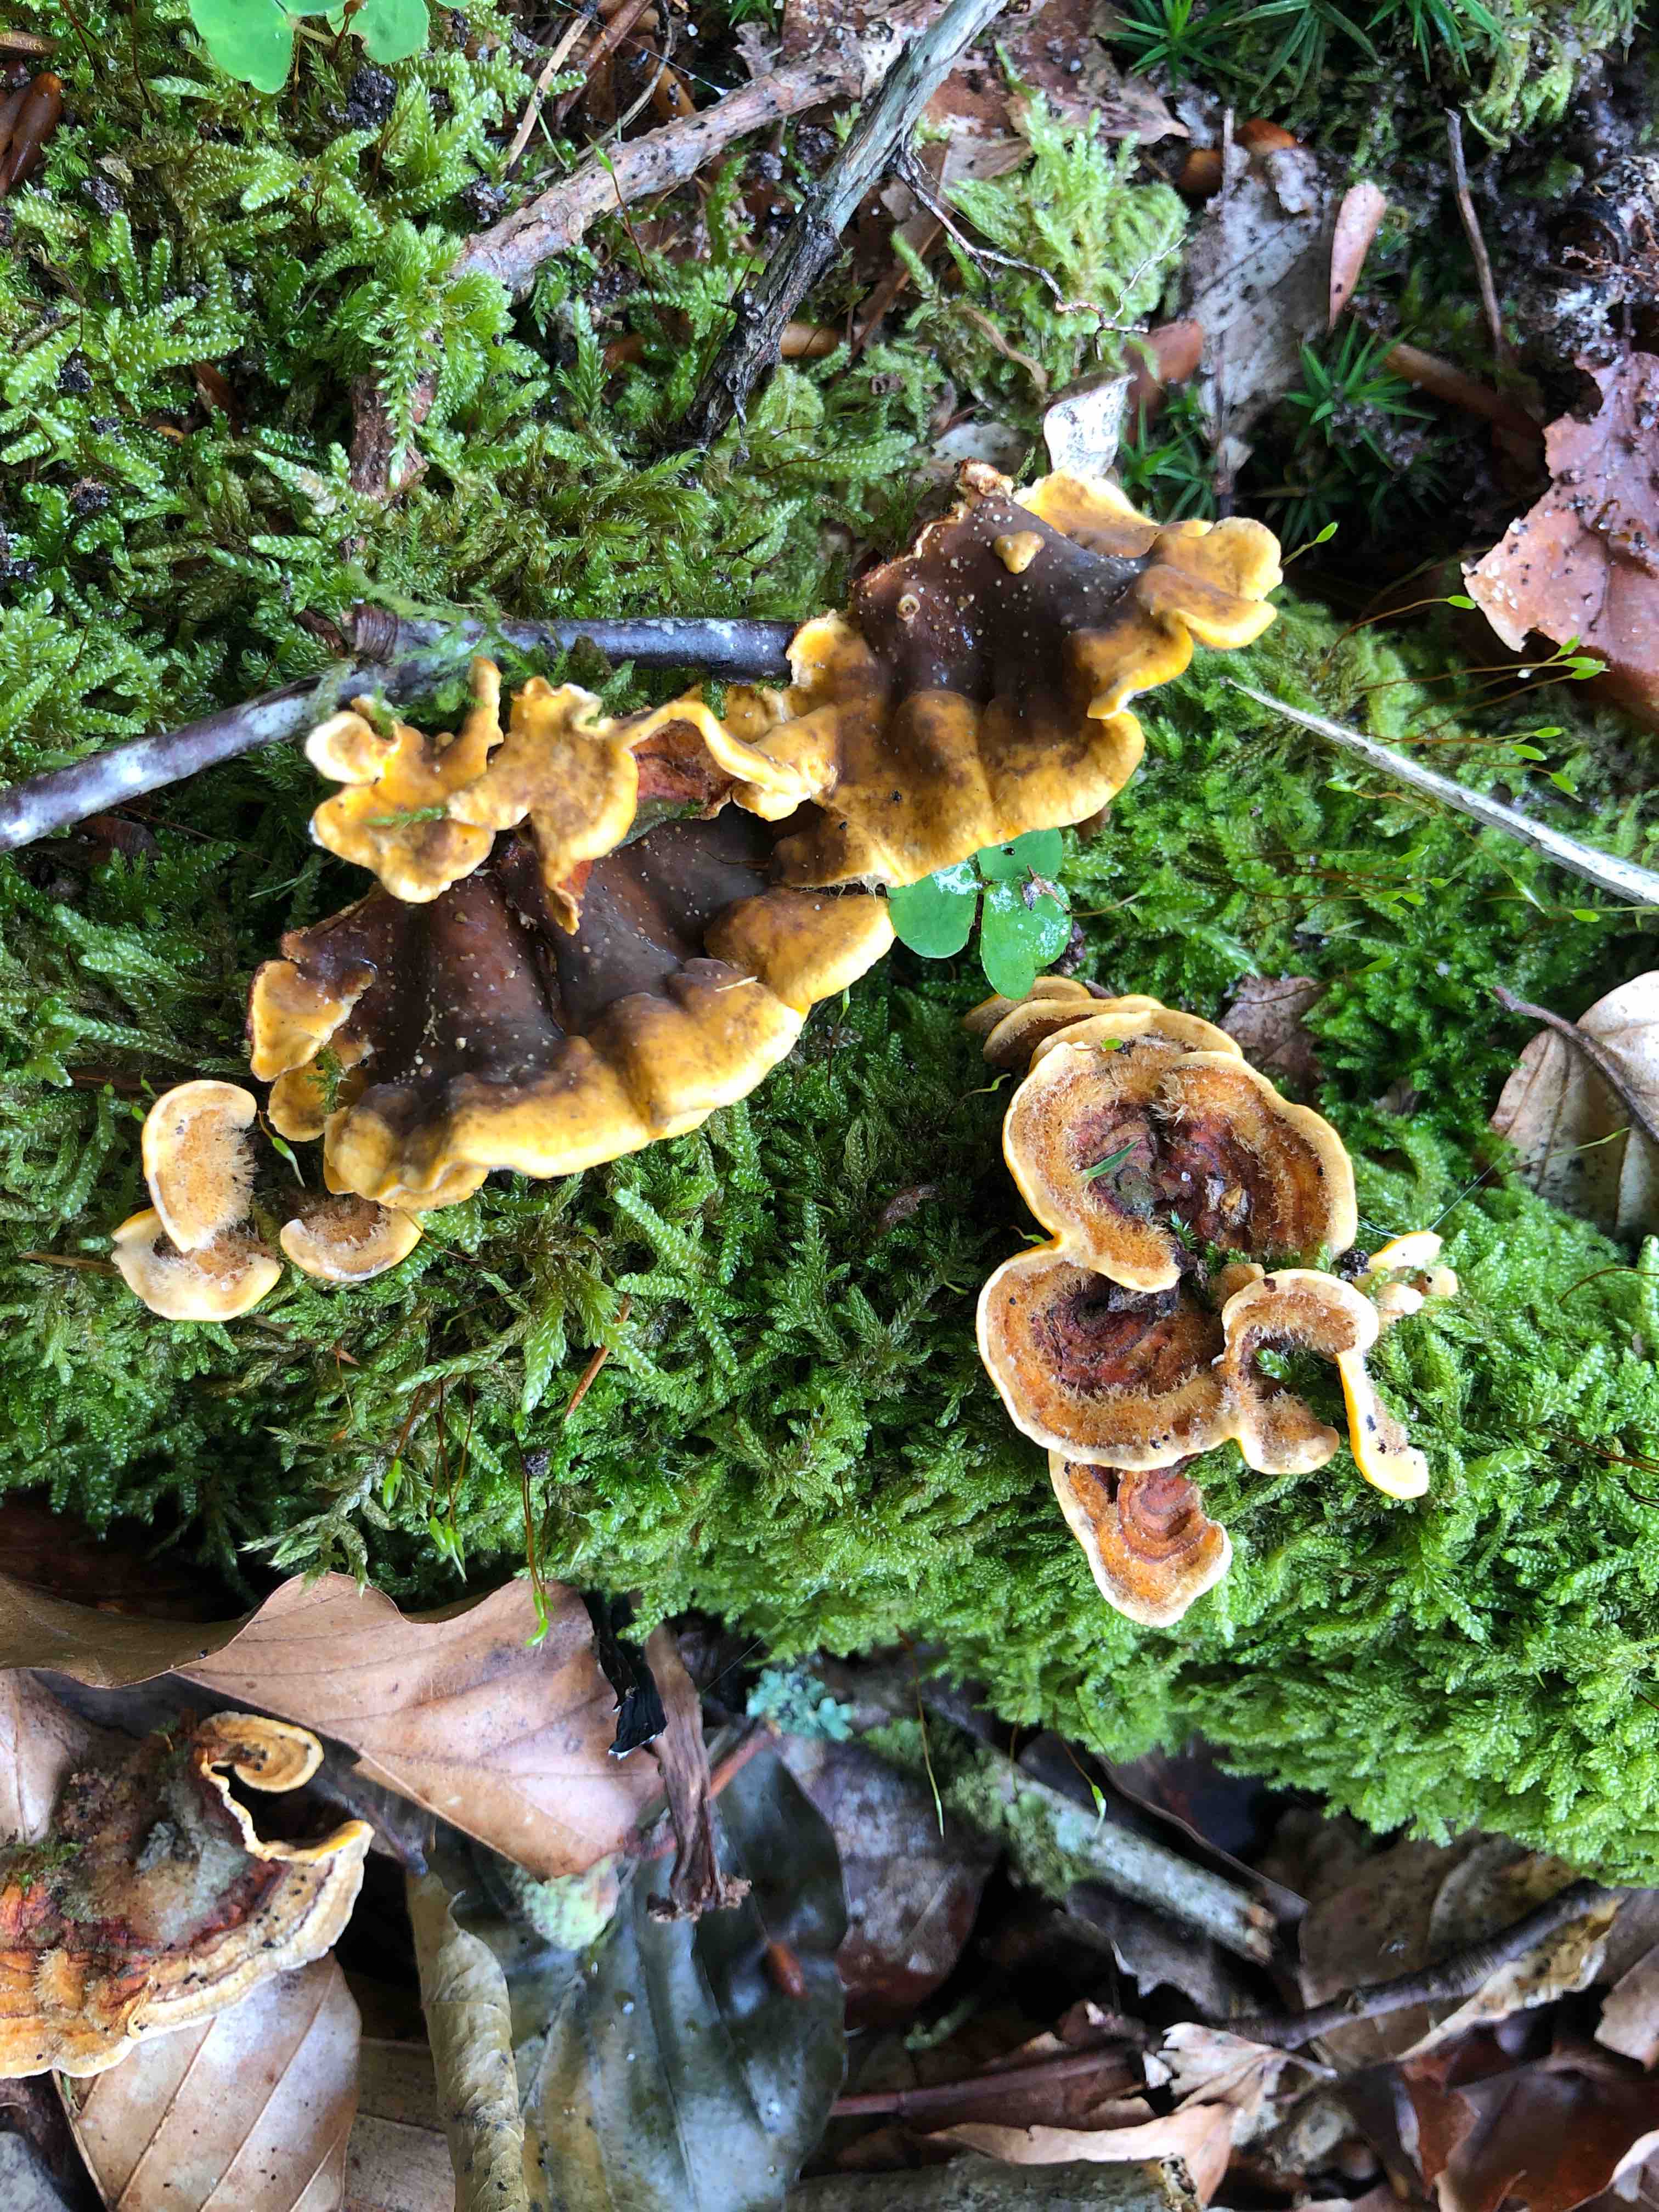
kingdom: Fungi
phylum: Basidiomycota
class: Agaricomycetes
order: Russulales
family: Stereaceae
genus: Stereum
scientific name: Stereum hirsutum
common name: håret lædersvamp
